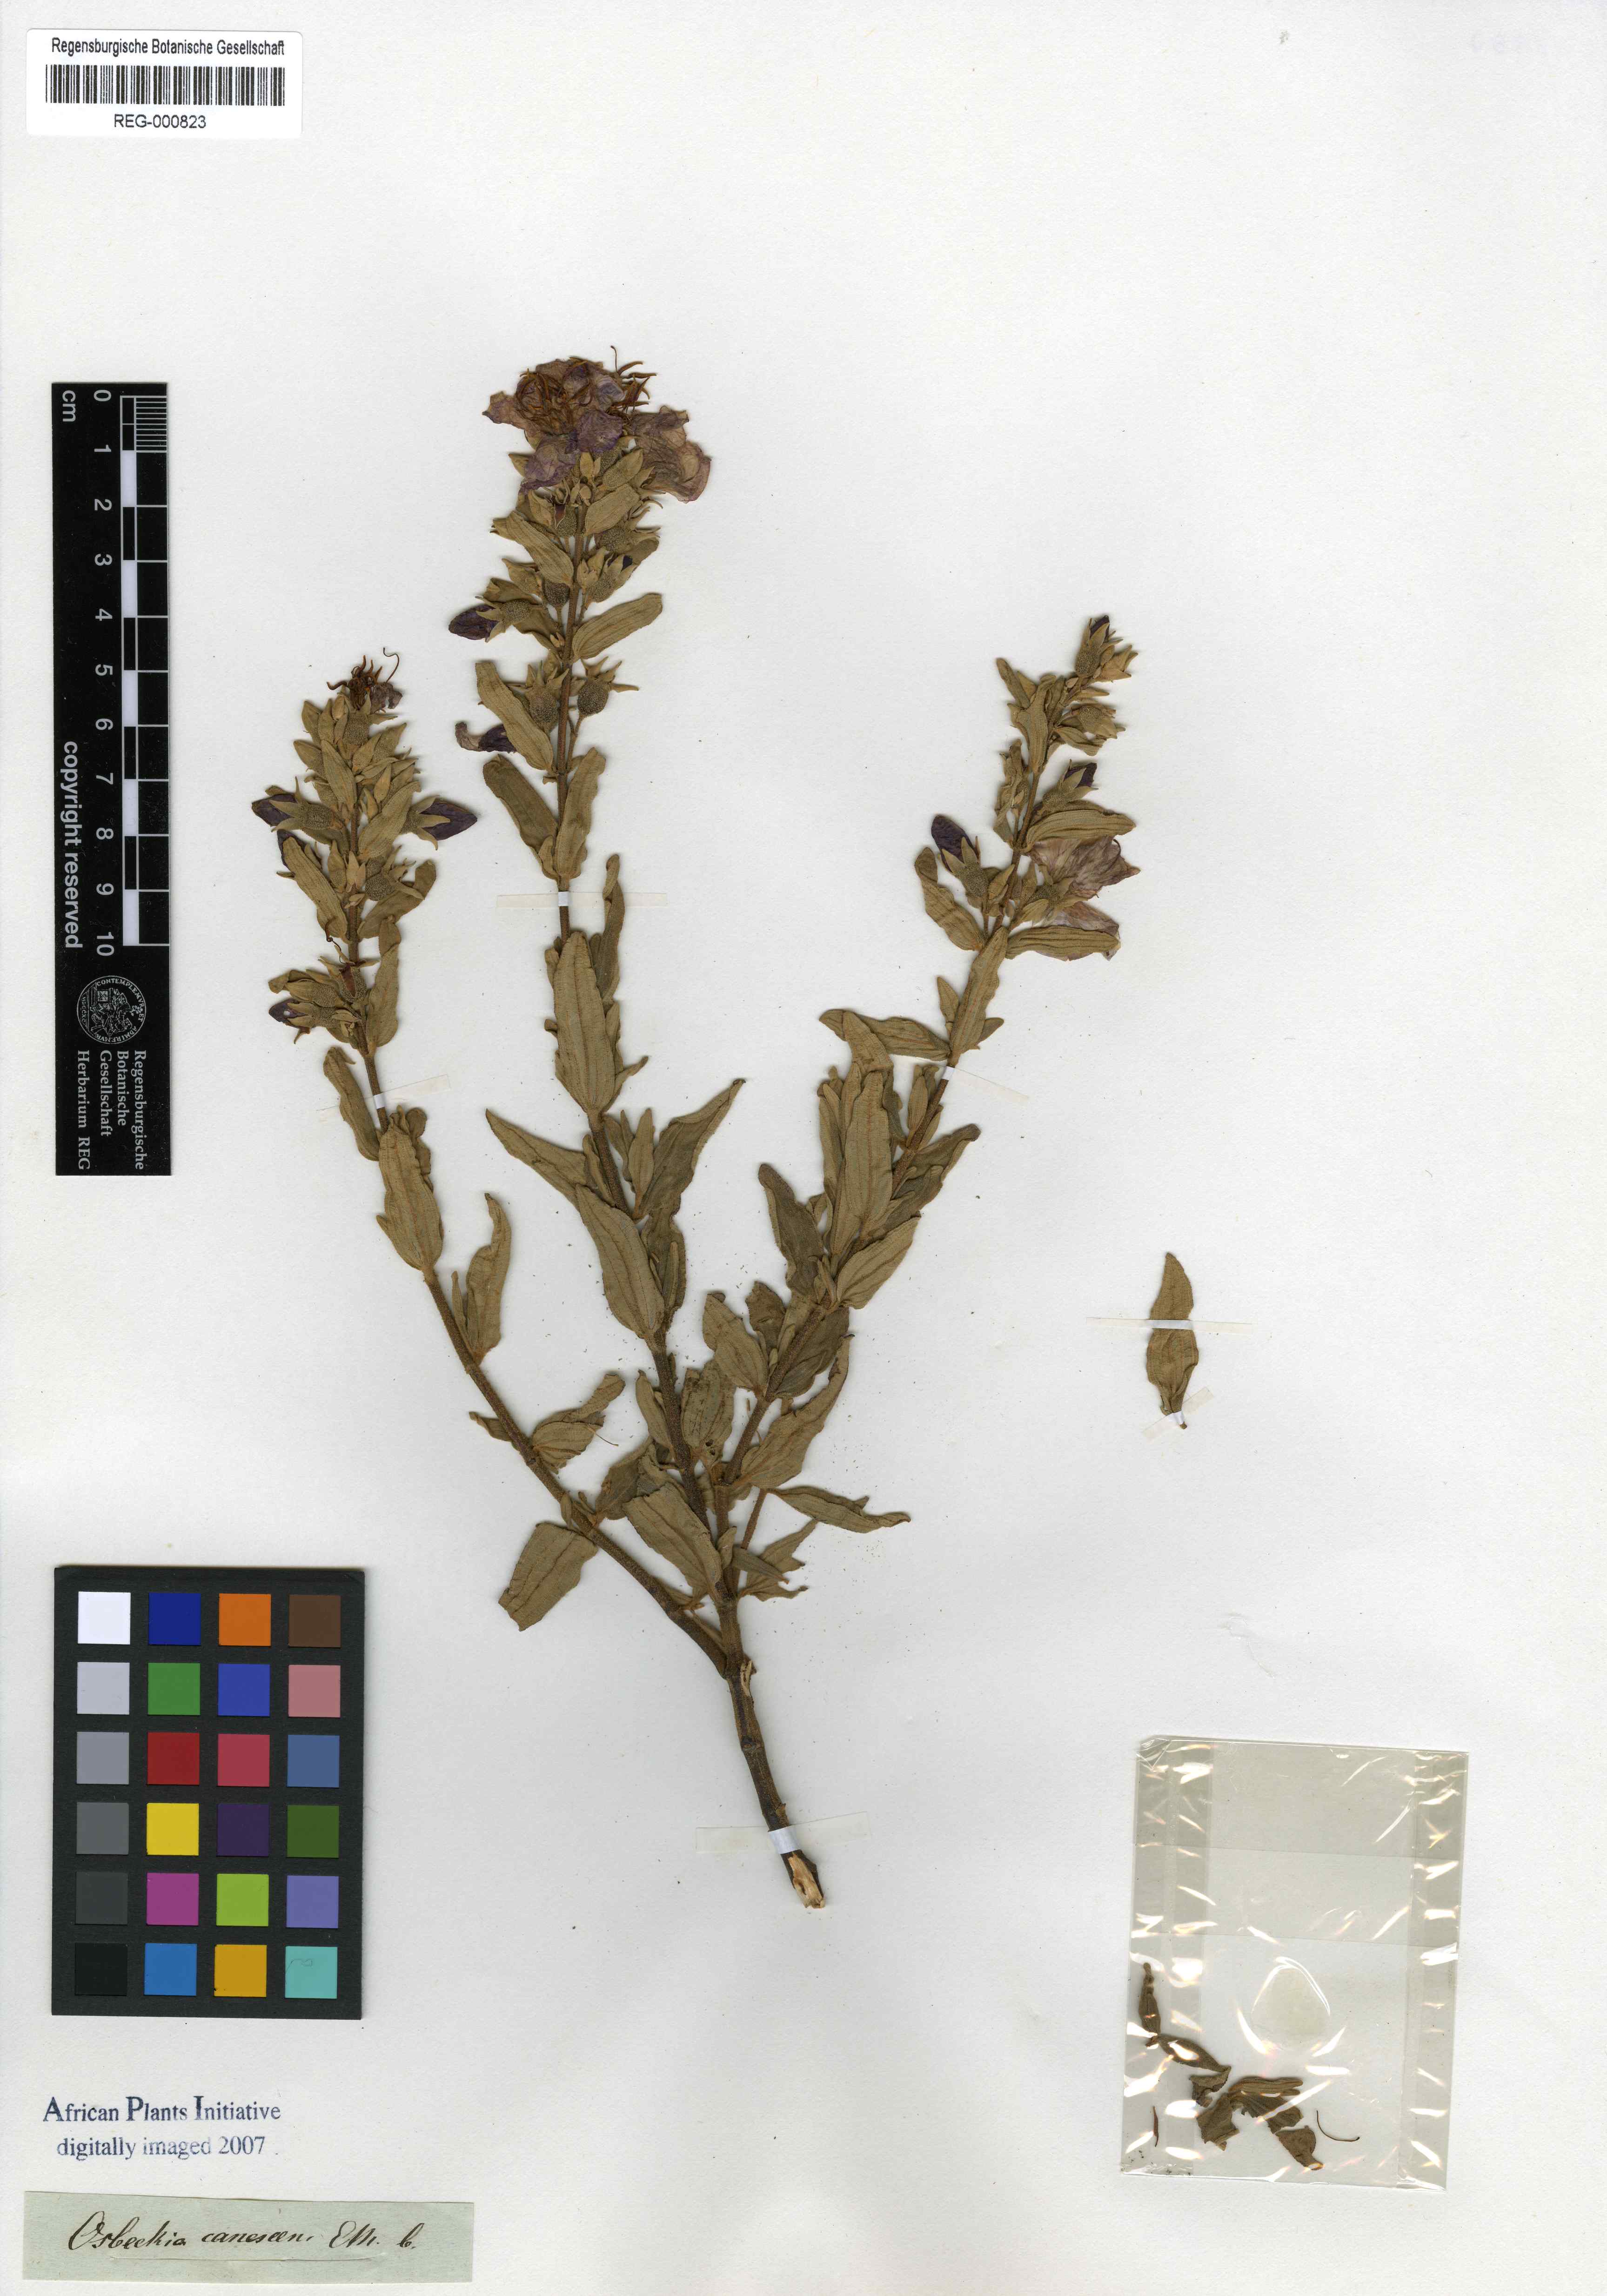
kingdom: Plantae
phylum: Tracheophyta
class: Magnoliopsida
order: Myrtales
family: Melastomataceae
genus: Argyrella
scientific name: Argyrella canescens
